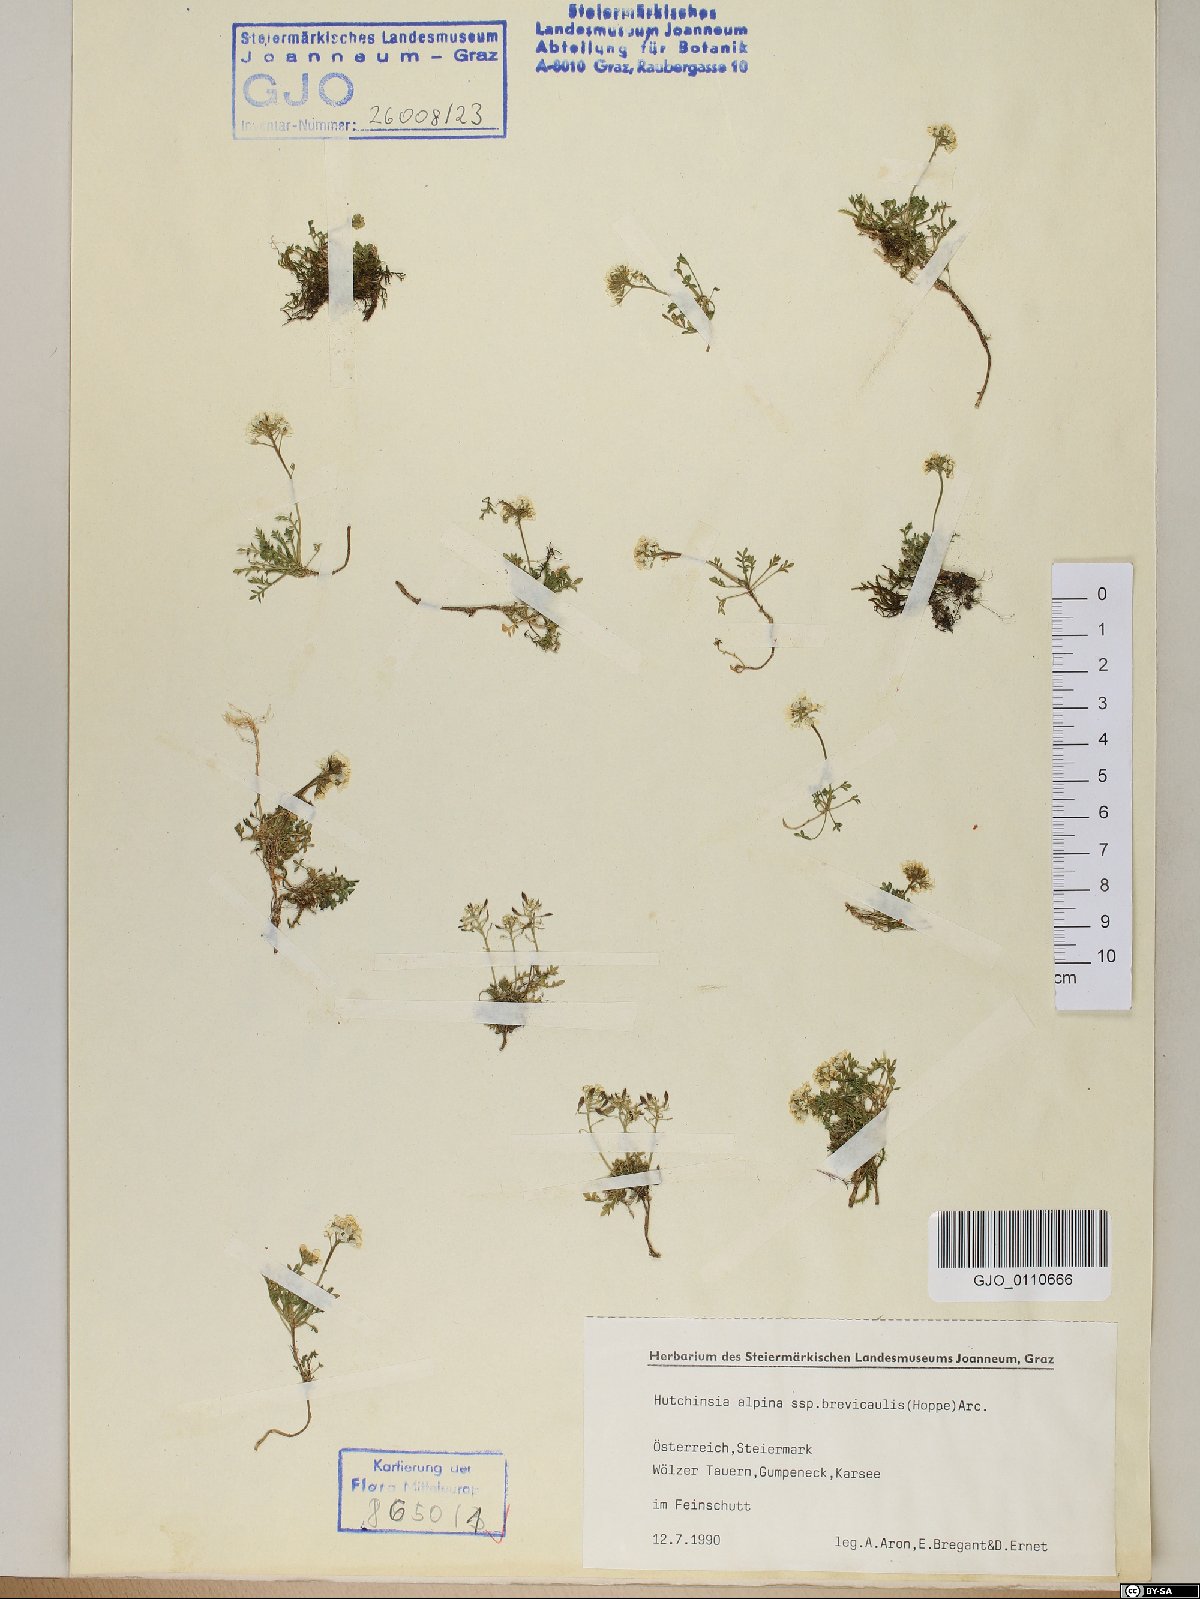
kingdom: Plantae
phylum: Tracheophyta
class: Magnoliopsida
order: Brassicales
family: Brassicaceae
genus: Hornungia
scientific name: Hornungia alpina
